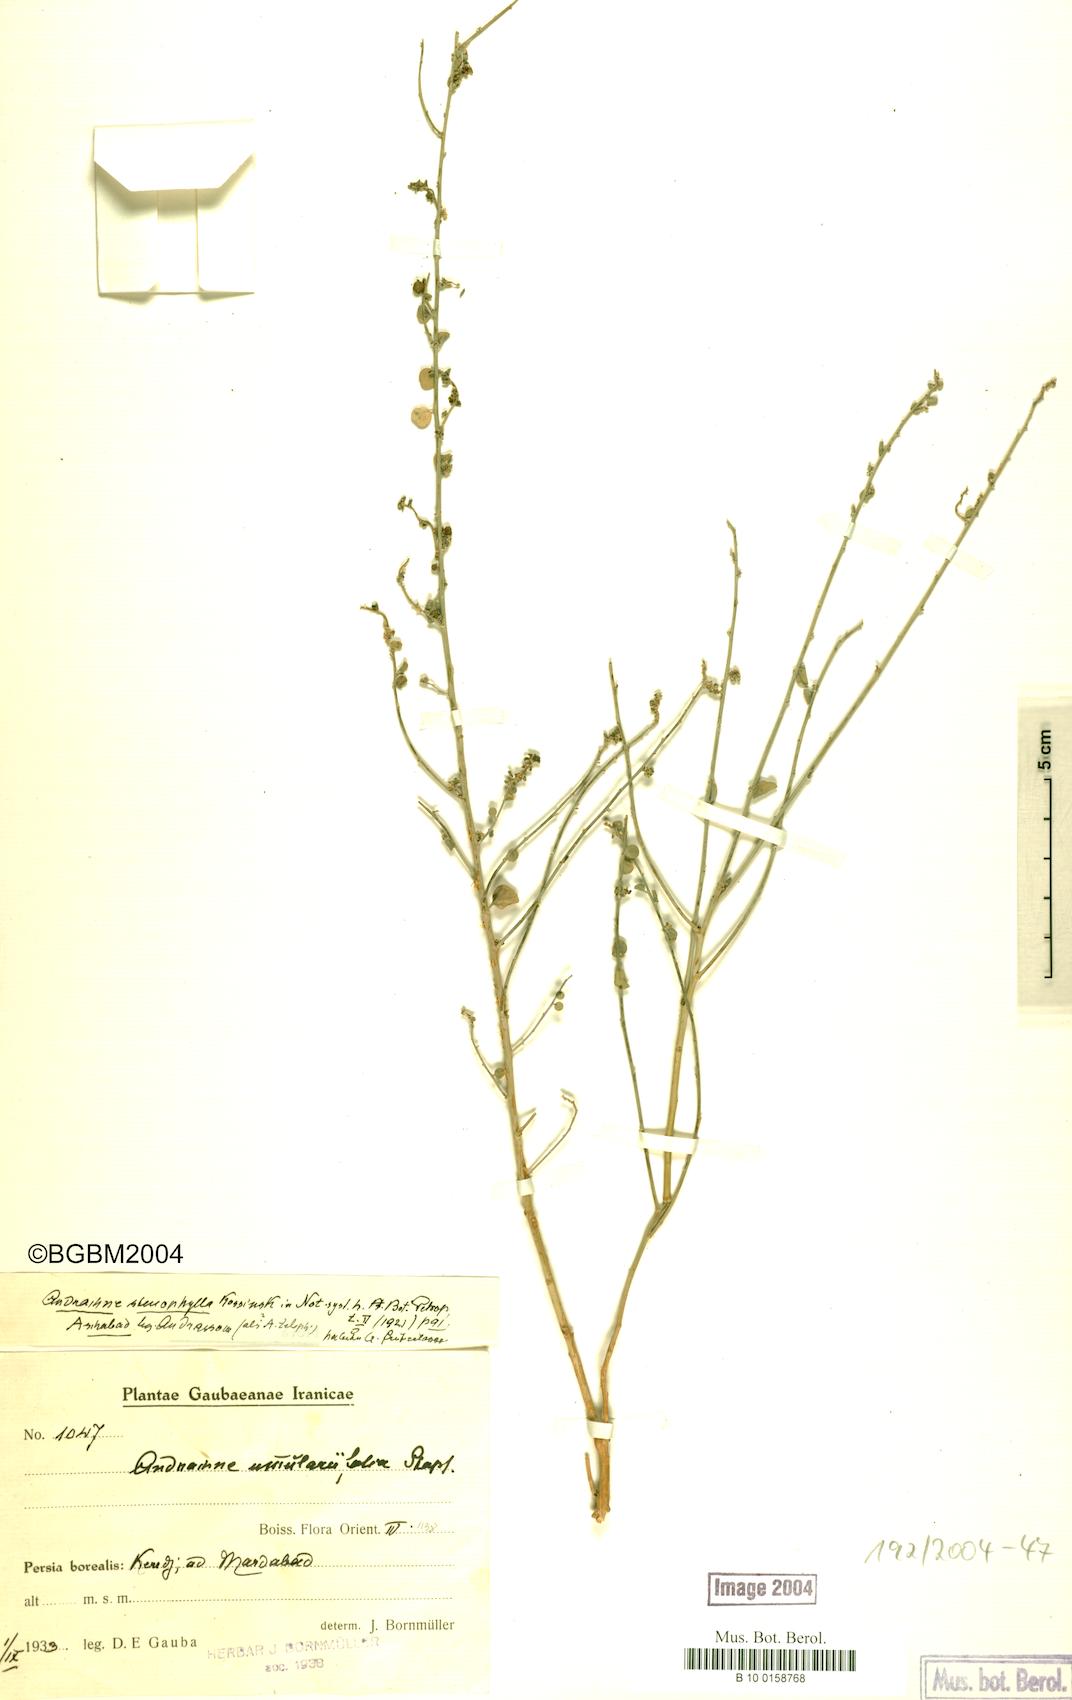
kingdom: Plantae
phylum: Tracheophyta
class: Magnoliopsida
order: Malpighiales
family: Phyllanthaceae
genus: Andrachne
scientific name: Andrachne stenophylla
